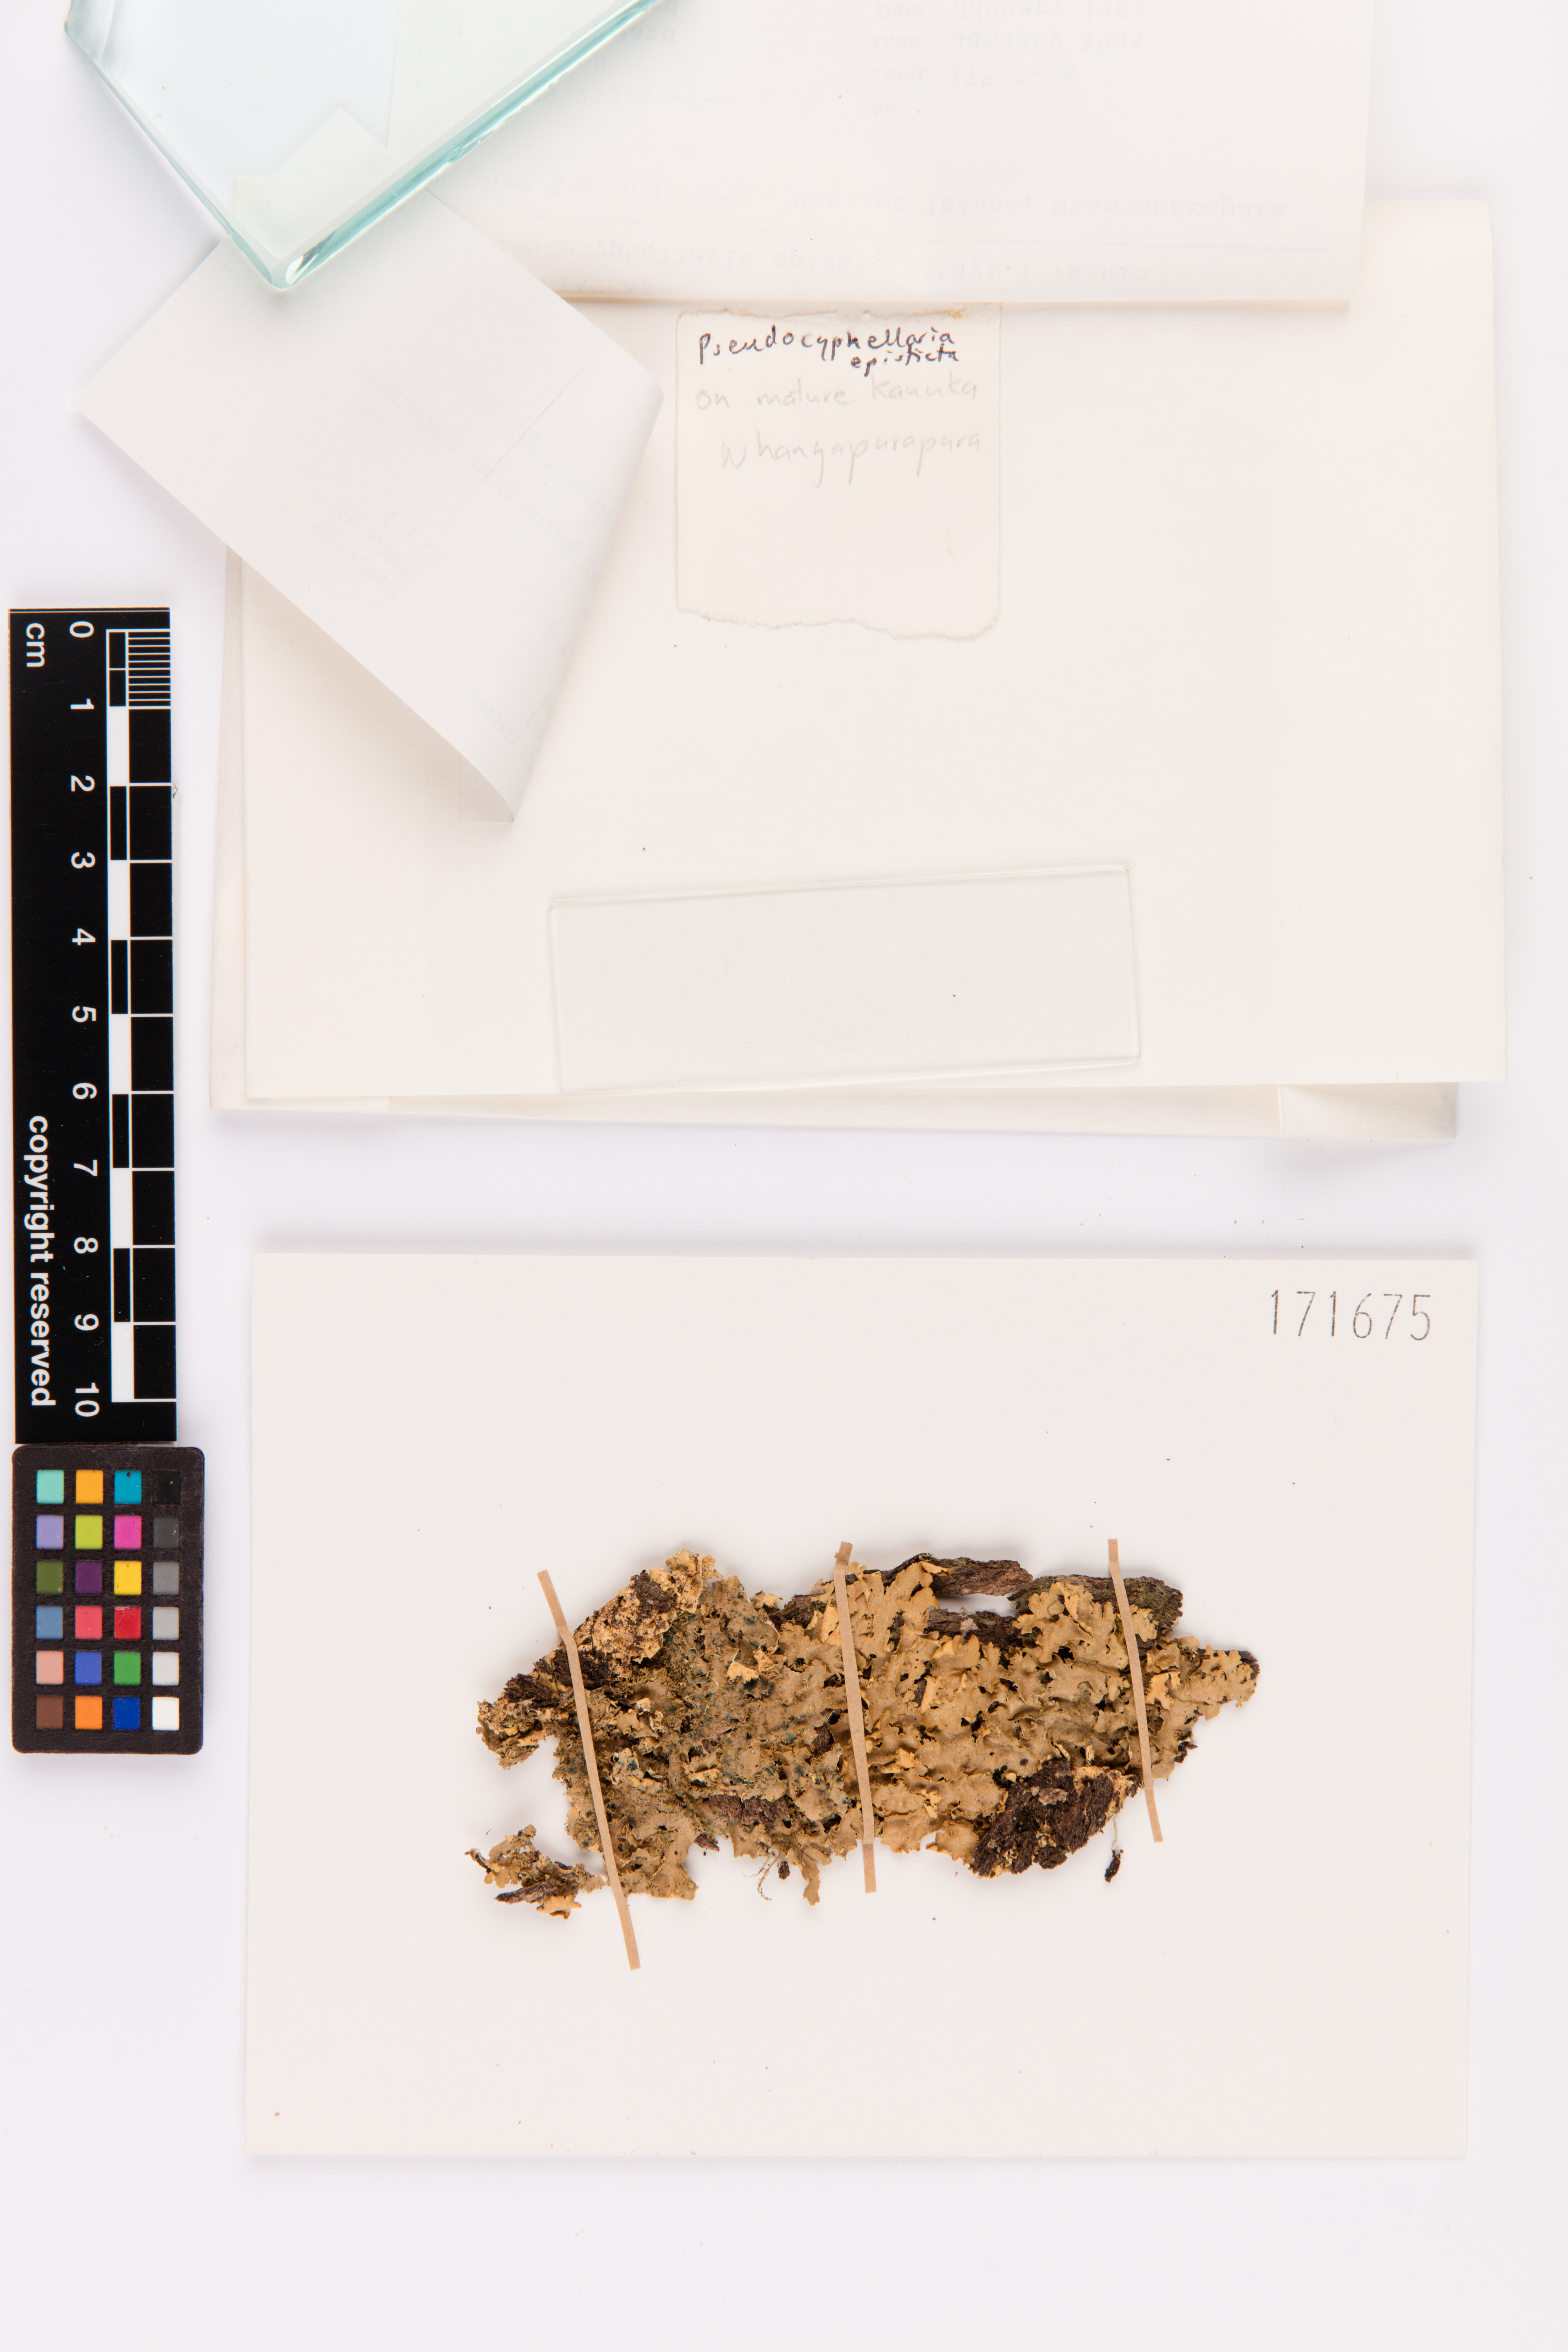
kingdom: Fungi
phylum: Ascomycota
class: Lecanoromycetes
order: Peltigerales
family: Lobariaceae
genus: Pseudocyphellaria
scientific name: Pseudocyphellaria episticta
